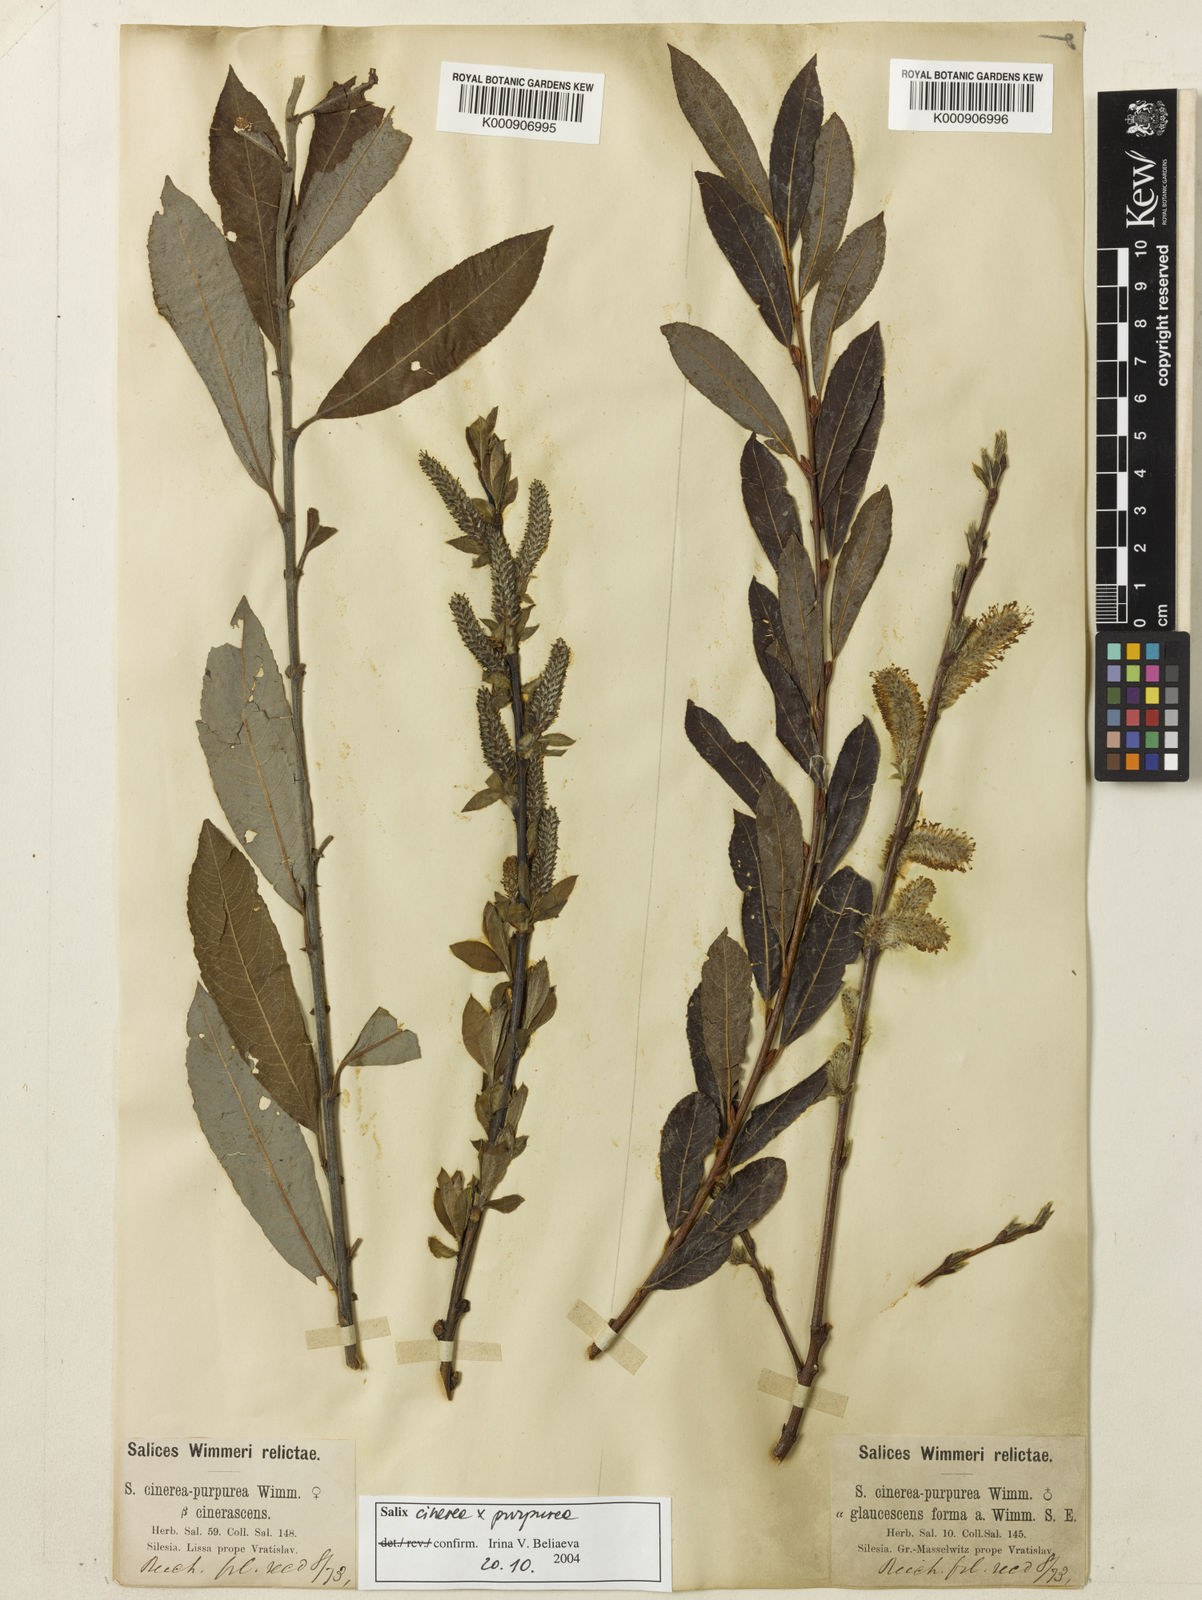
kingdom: Plantae
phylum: Tracheophyta
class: Magnoliopsida
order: Malpighiales
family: Salicaceae
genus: Salix
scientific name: Salix cinerea
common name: Common sallow
